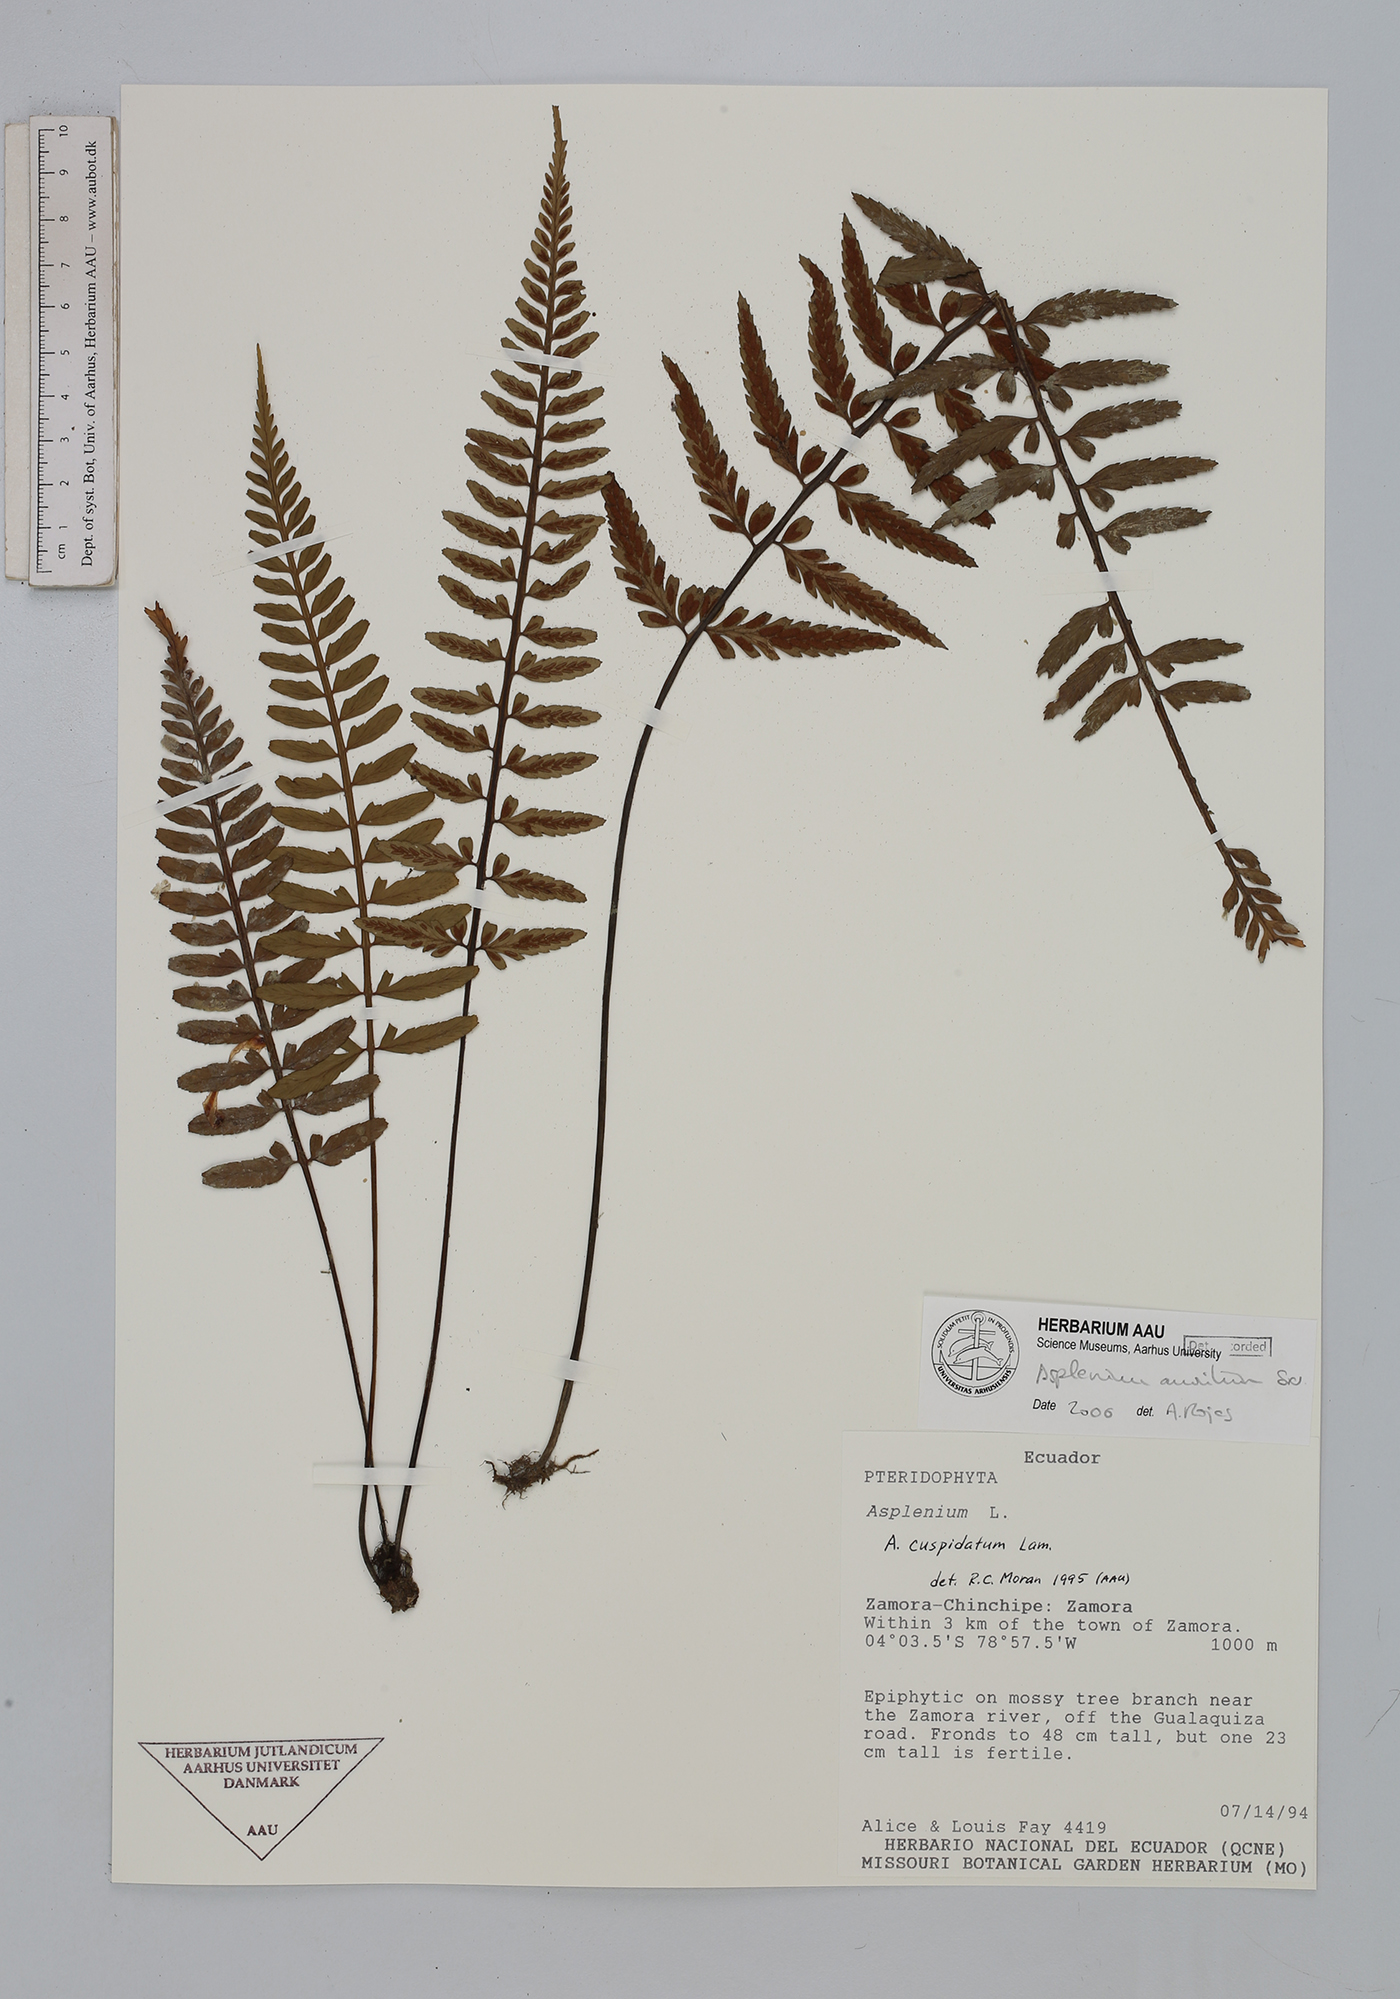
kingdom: Plantae
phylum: Tracheophyta
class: Polypodiopsida
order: Polypodiales
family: Aspleniaceae
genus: Asplenium
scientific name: Asplenium auritum
